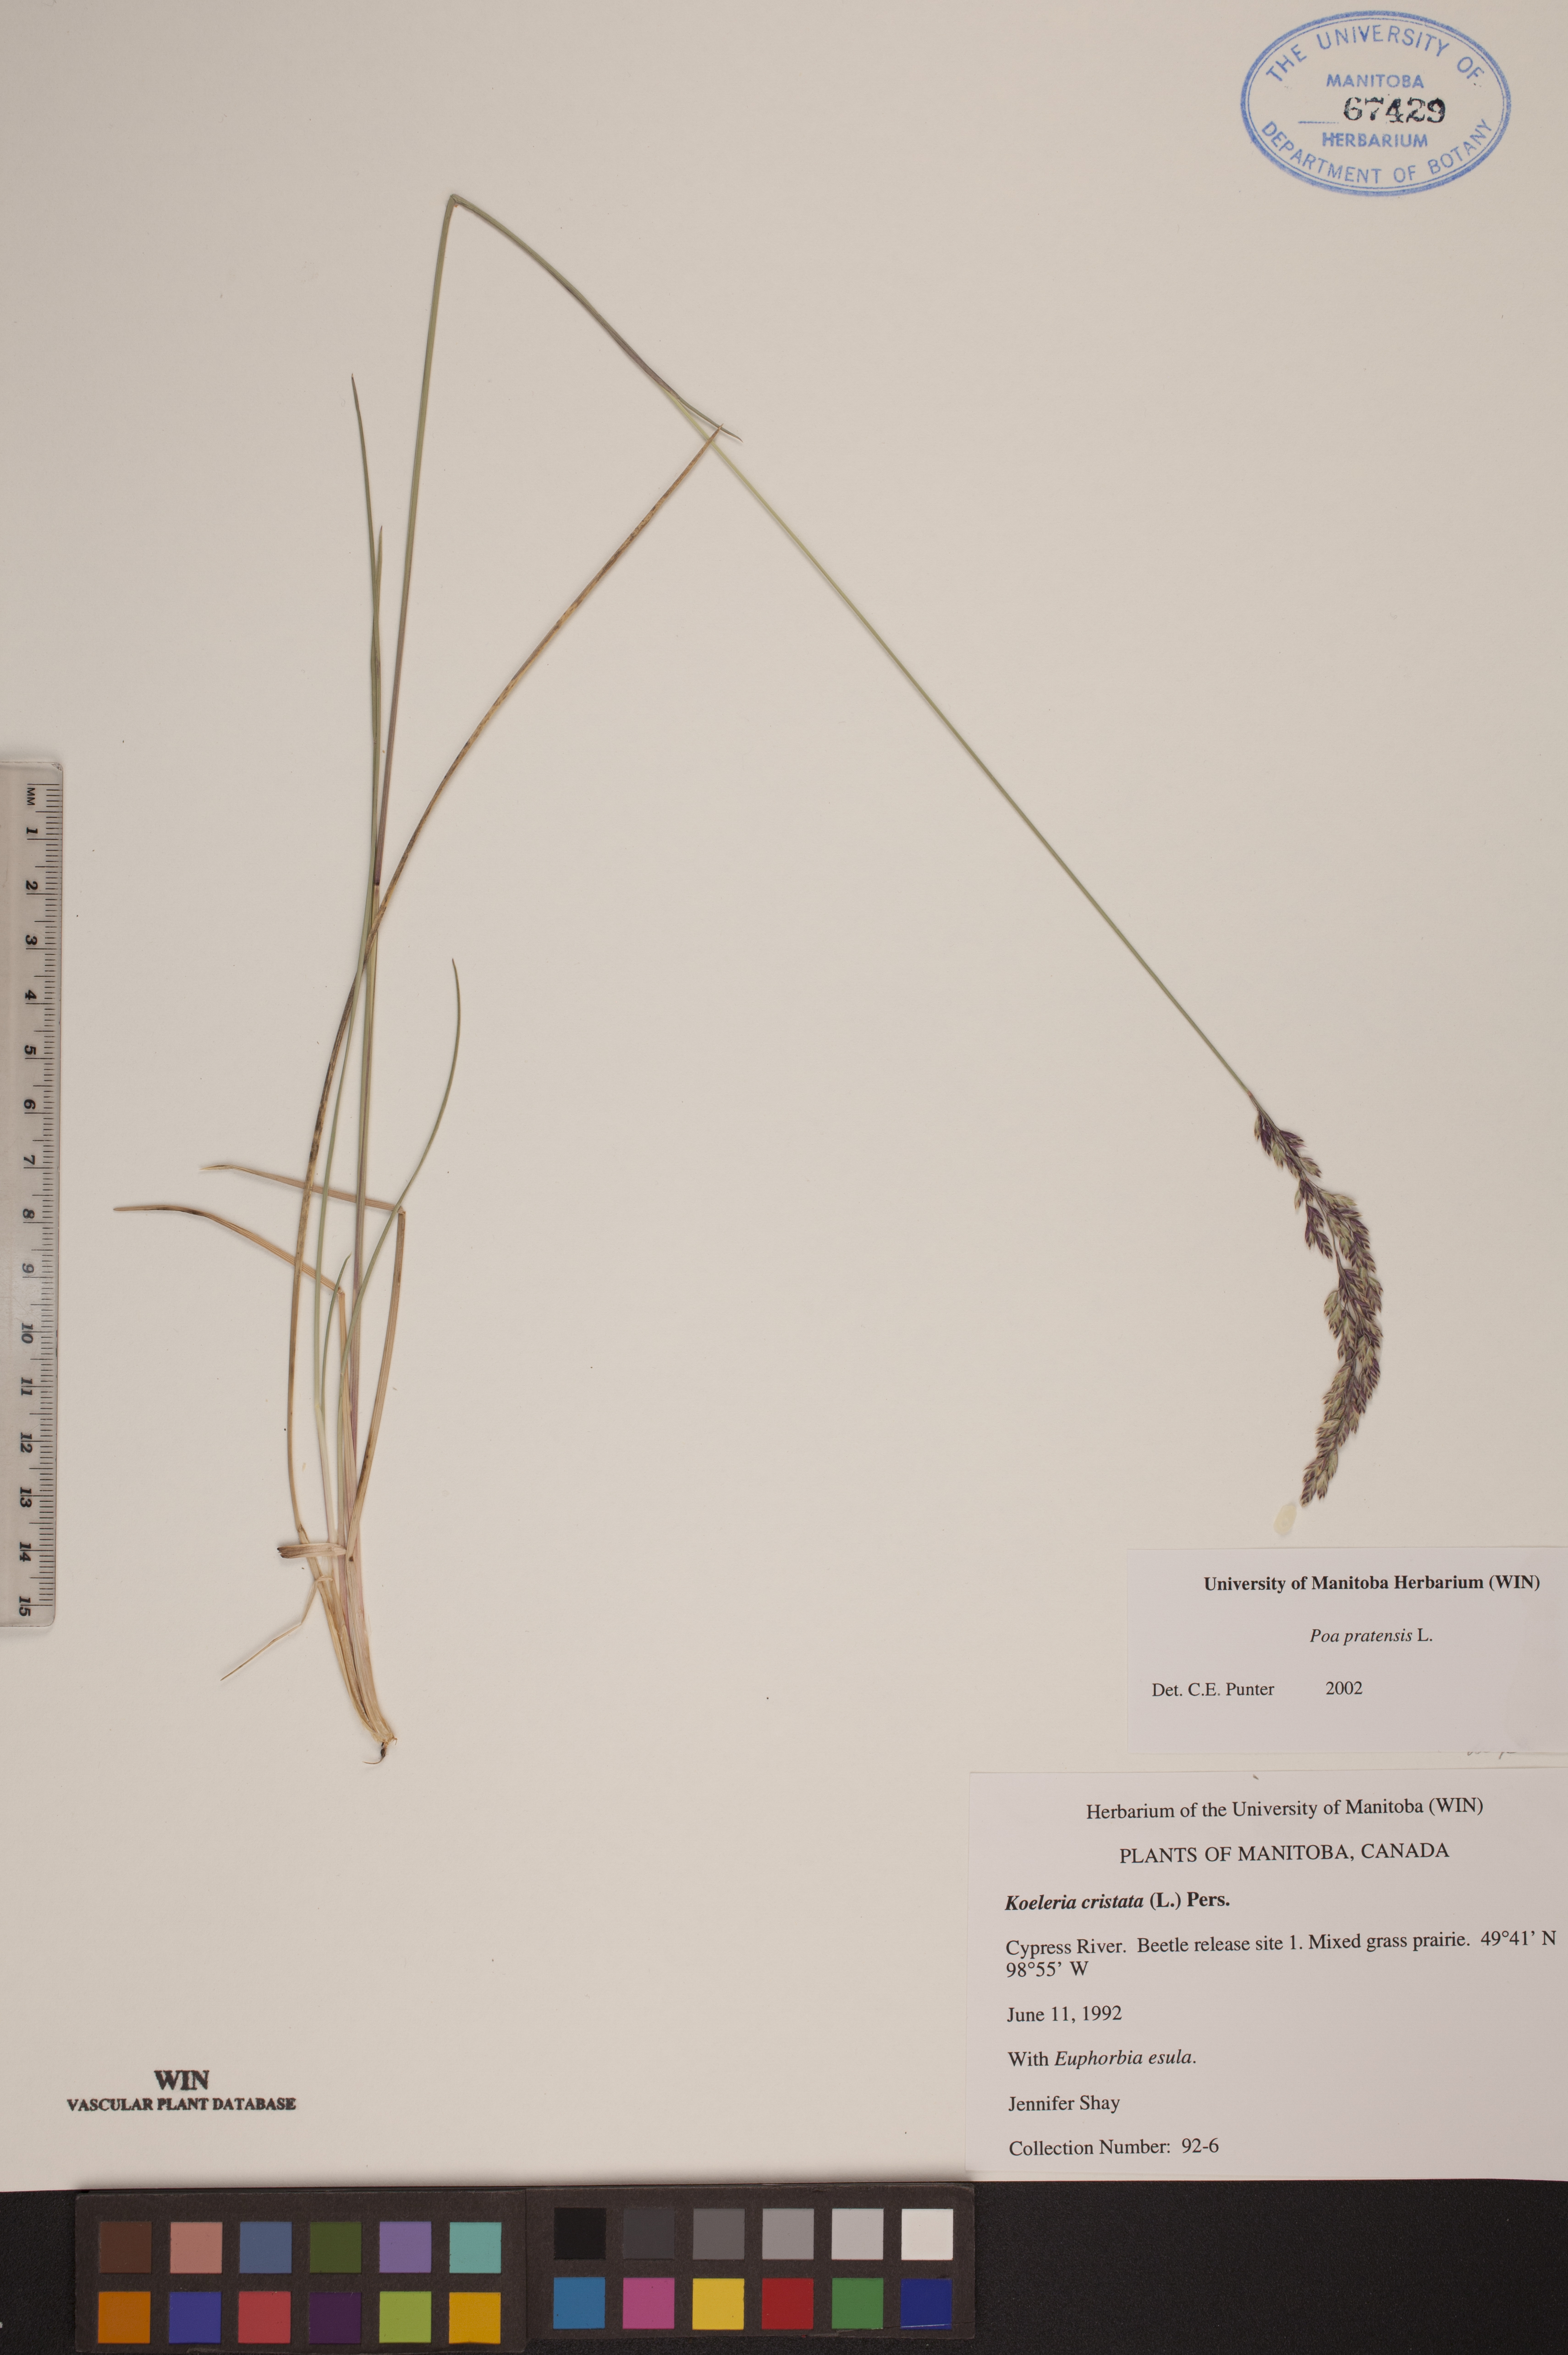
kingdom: Plantae
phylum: Tracheophyta
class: Liliopsida
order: Poales
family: Poaceae
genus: Poa
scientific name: Poa pratensis
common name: Kentucky bluegrass
